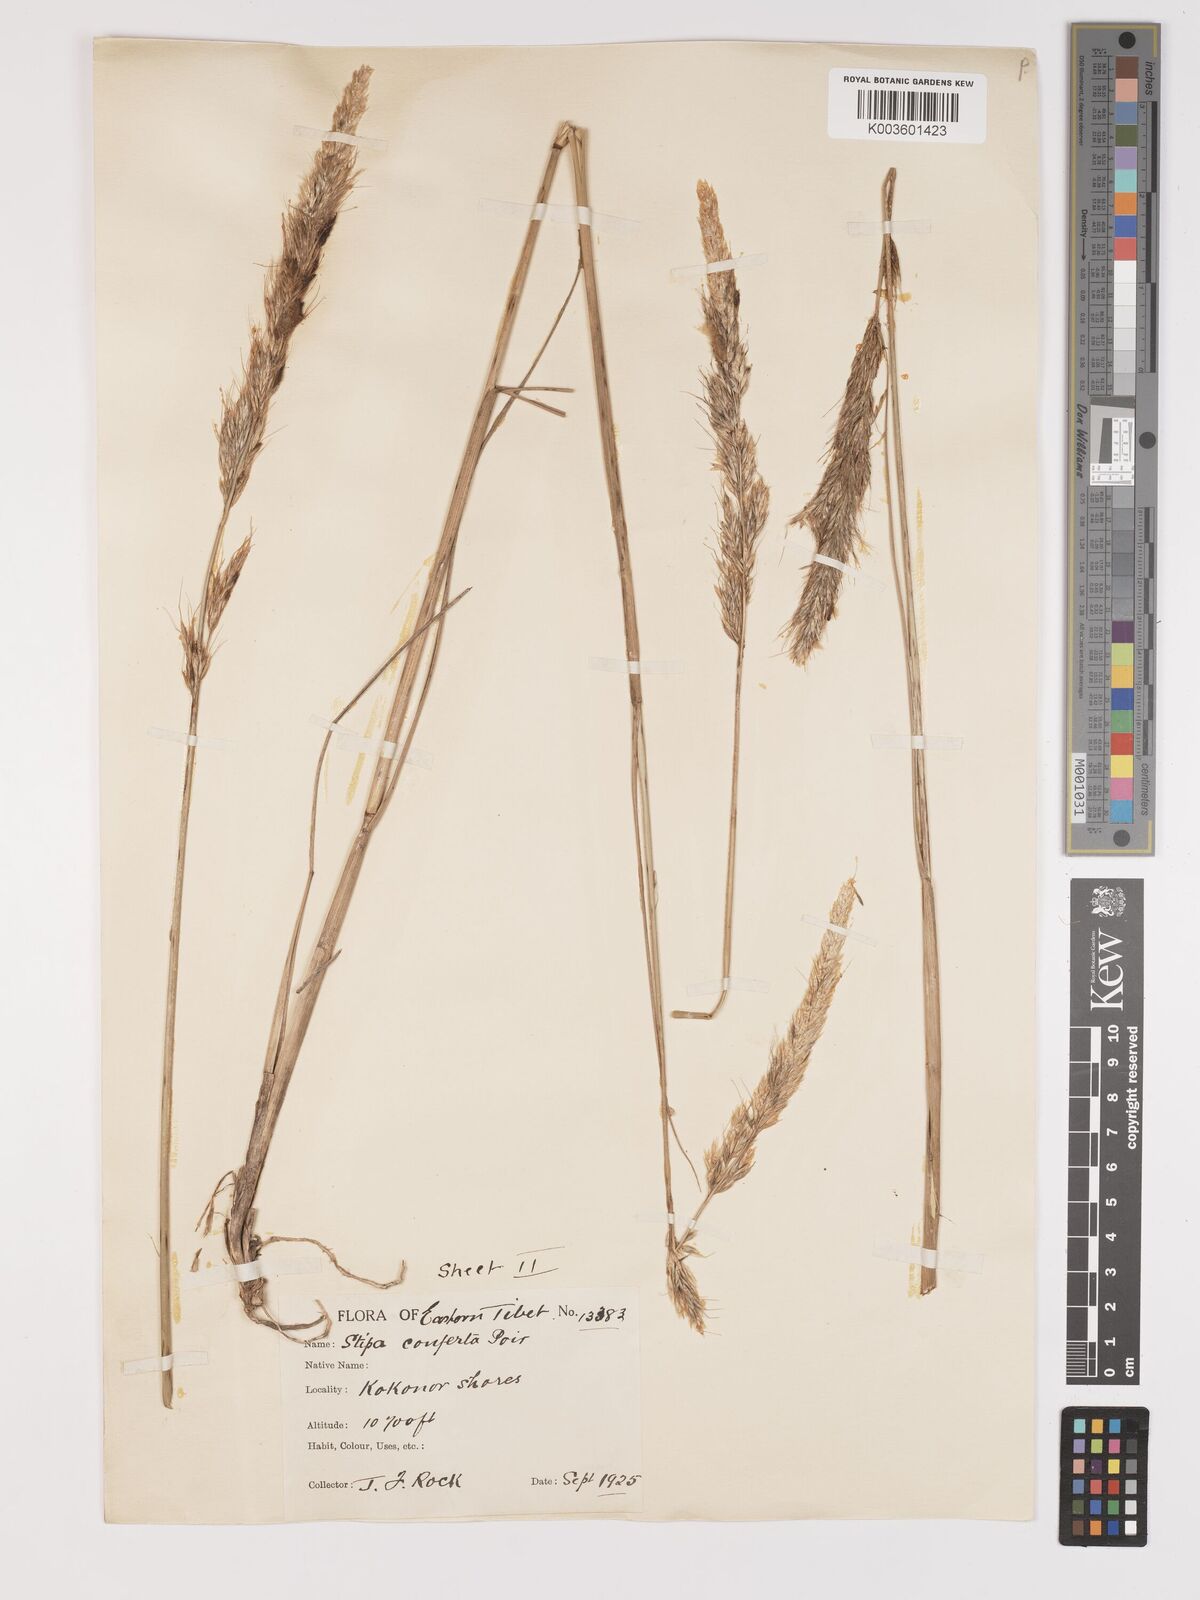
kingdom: Plantae
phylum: Tracheophyta
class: Liliopsida
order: Poales
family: Poaceae
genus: Achnatherum
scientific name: Achnatherum inebrians
